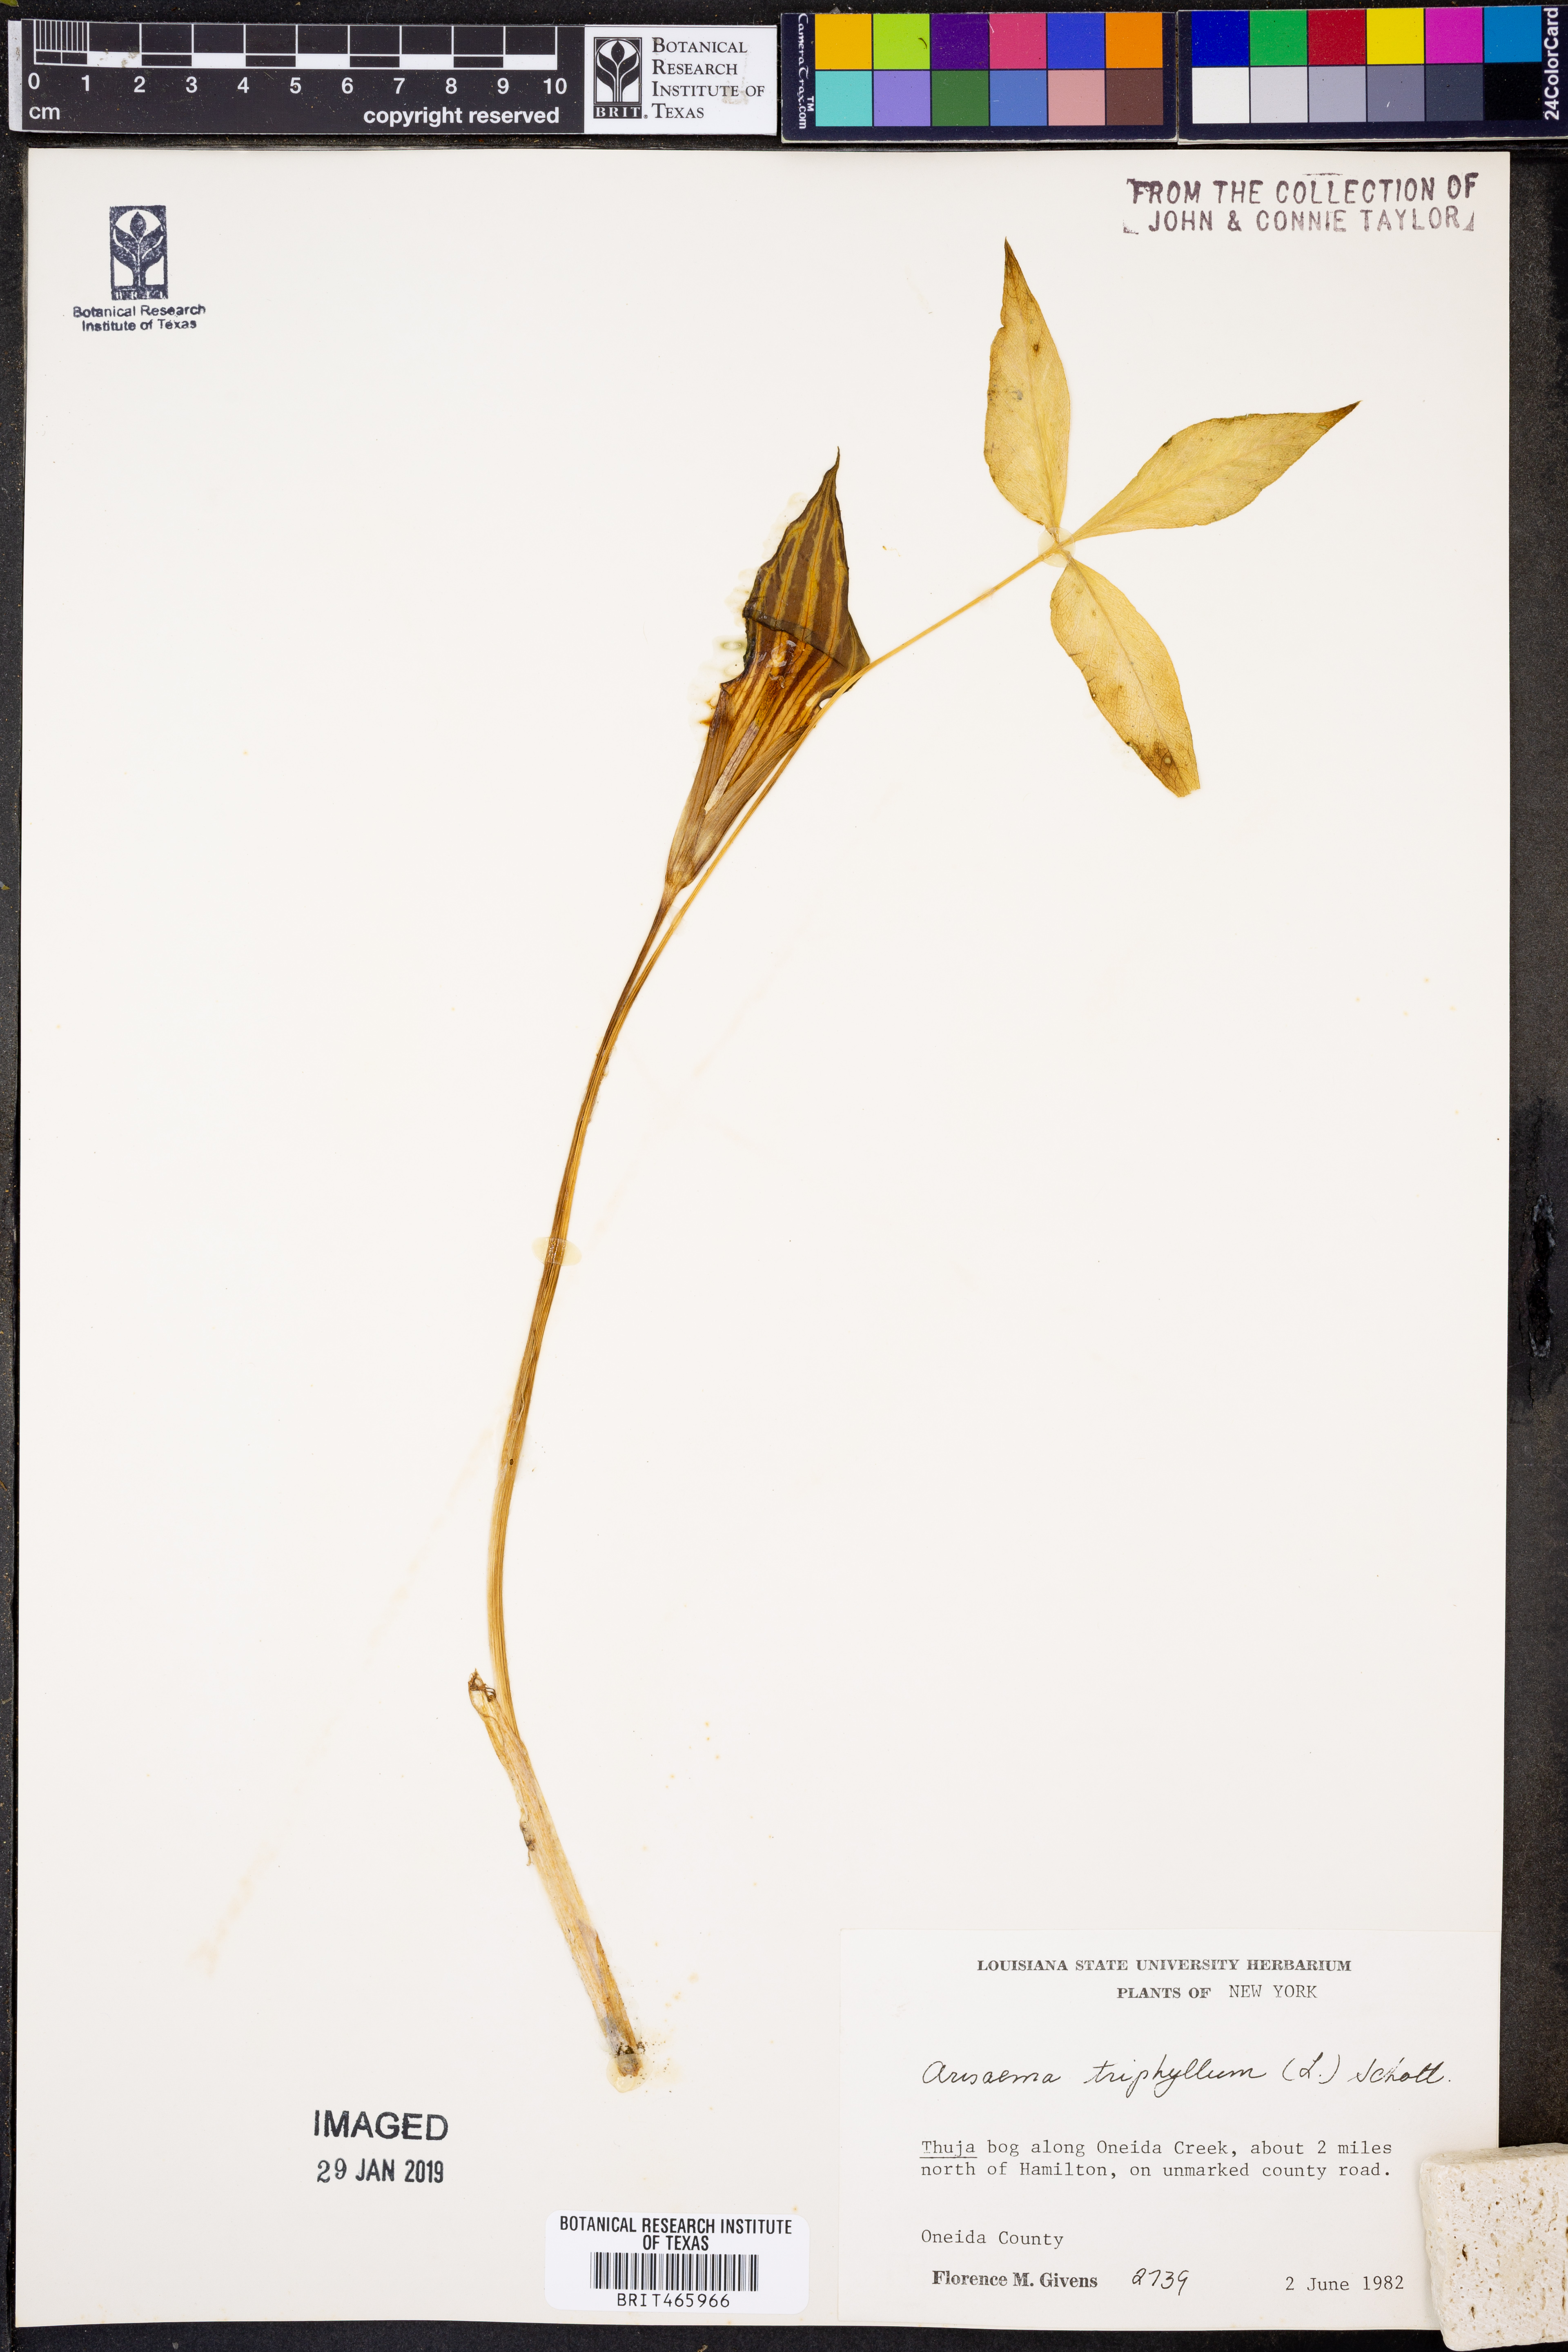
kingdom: Plantae
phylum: Tracheophyta
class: Liliopsida
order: Alismatales
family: Araceae
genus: Arisaema
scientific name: Arisaema triphyllum
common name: Jack-in-the-pulpit
